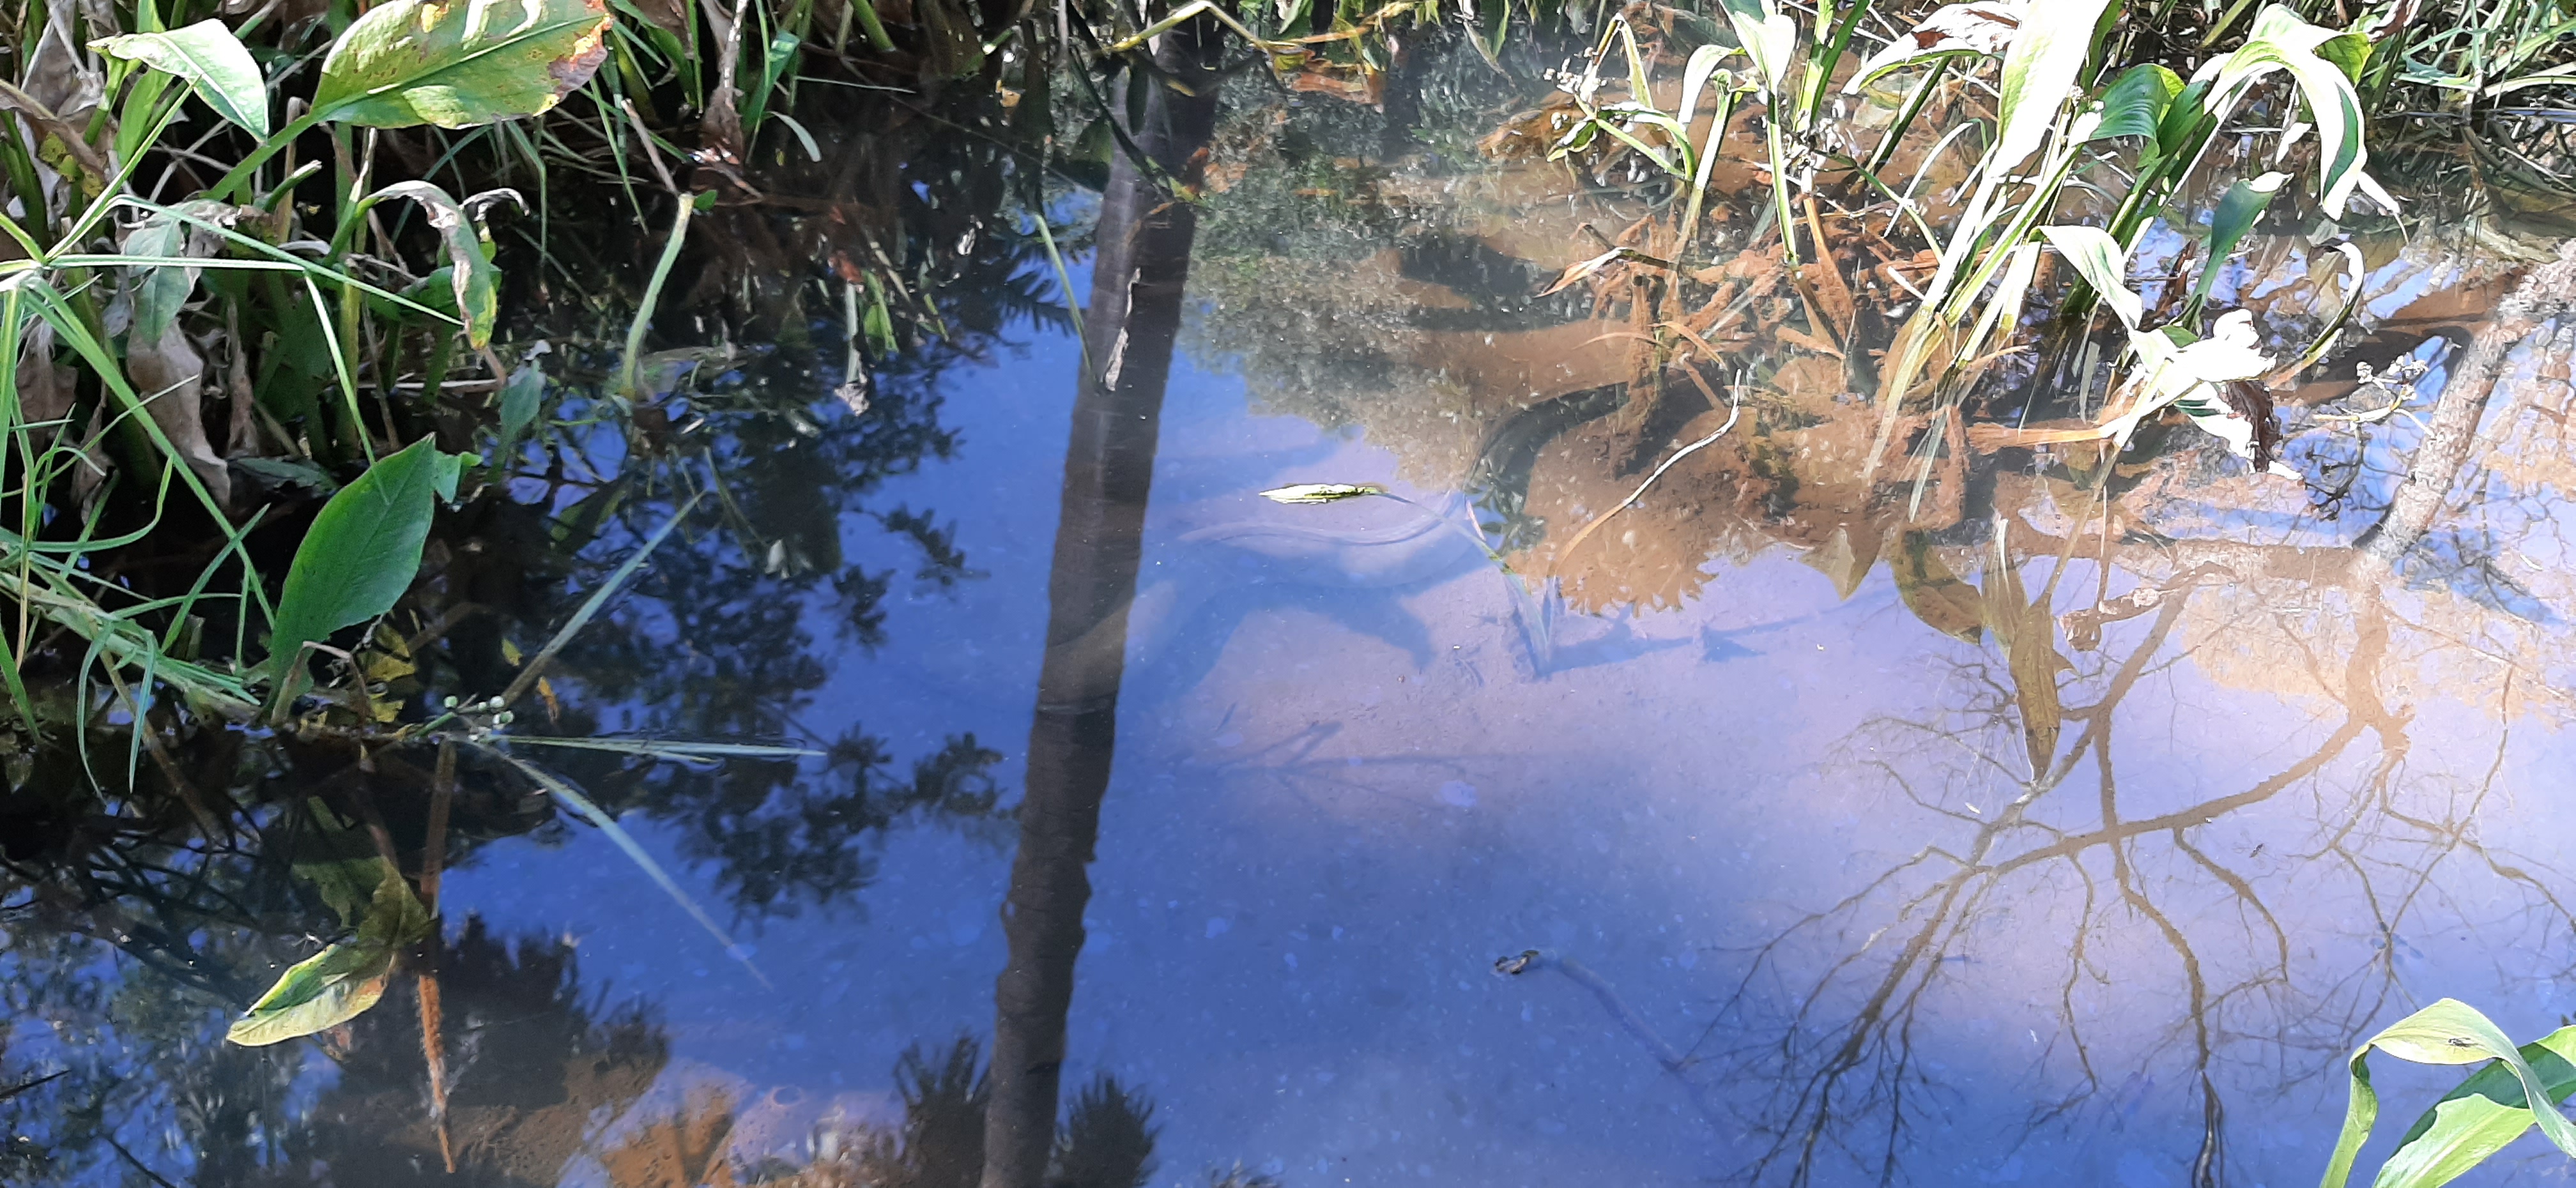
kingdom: Animalia
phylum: Chordata
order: Anguilliformes
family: Anguillidae
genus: Anguilla
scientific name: Anguilla mossambica
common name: African longfin eel
